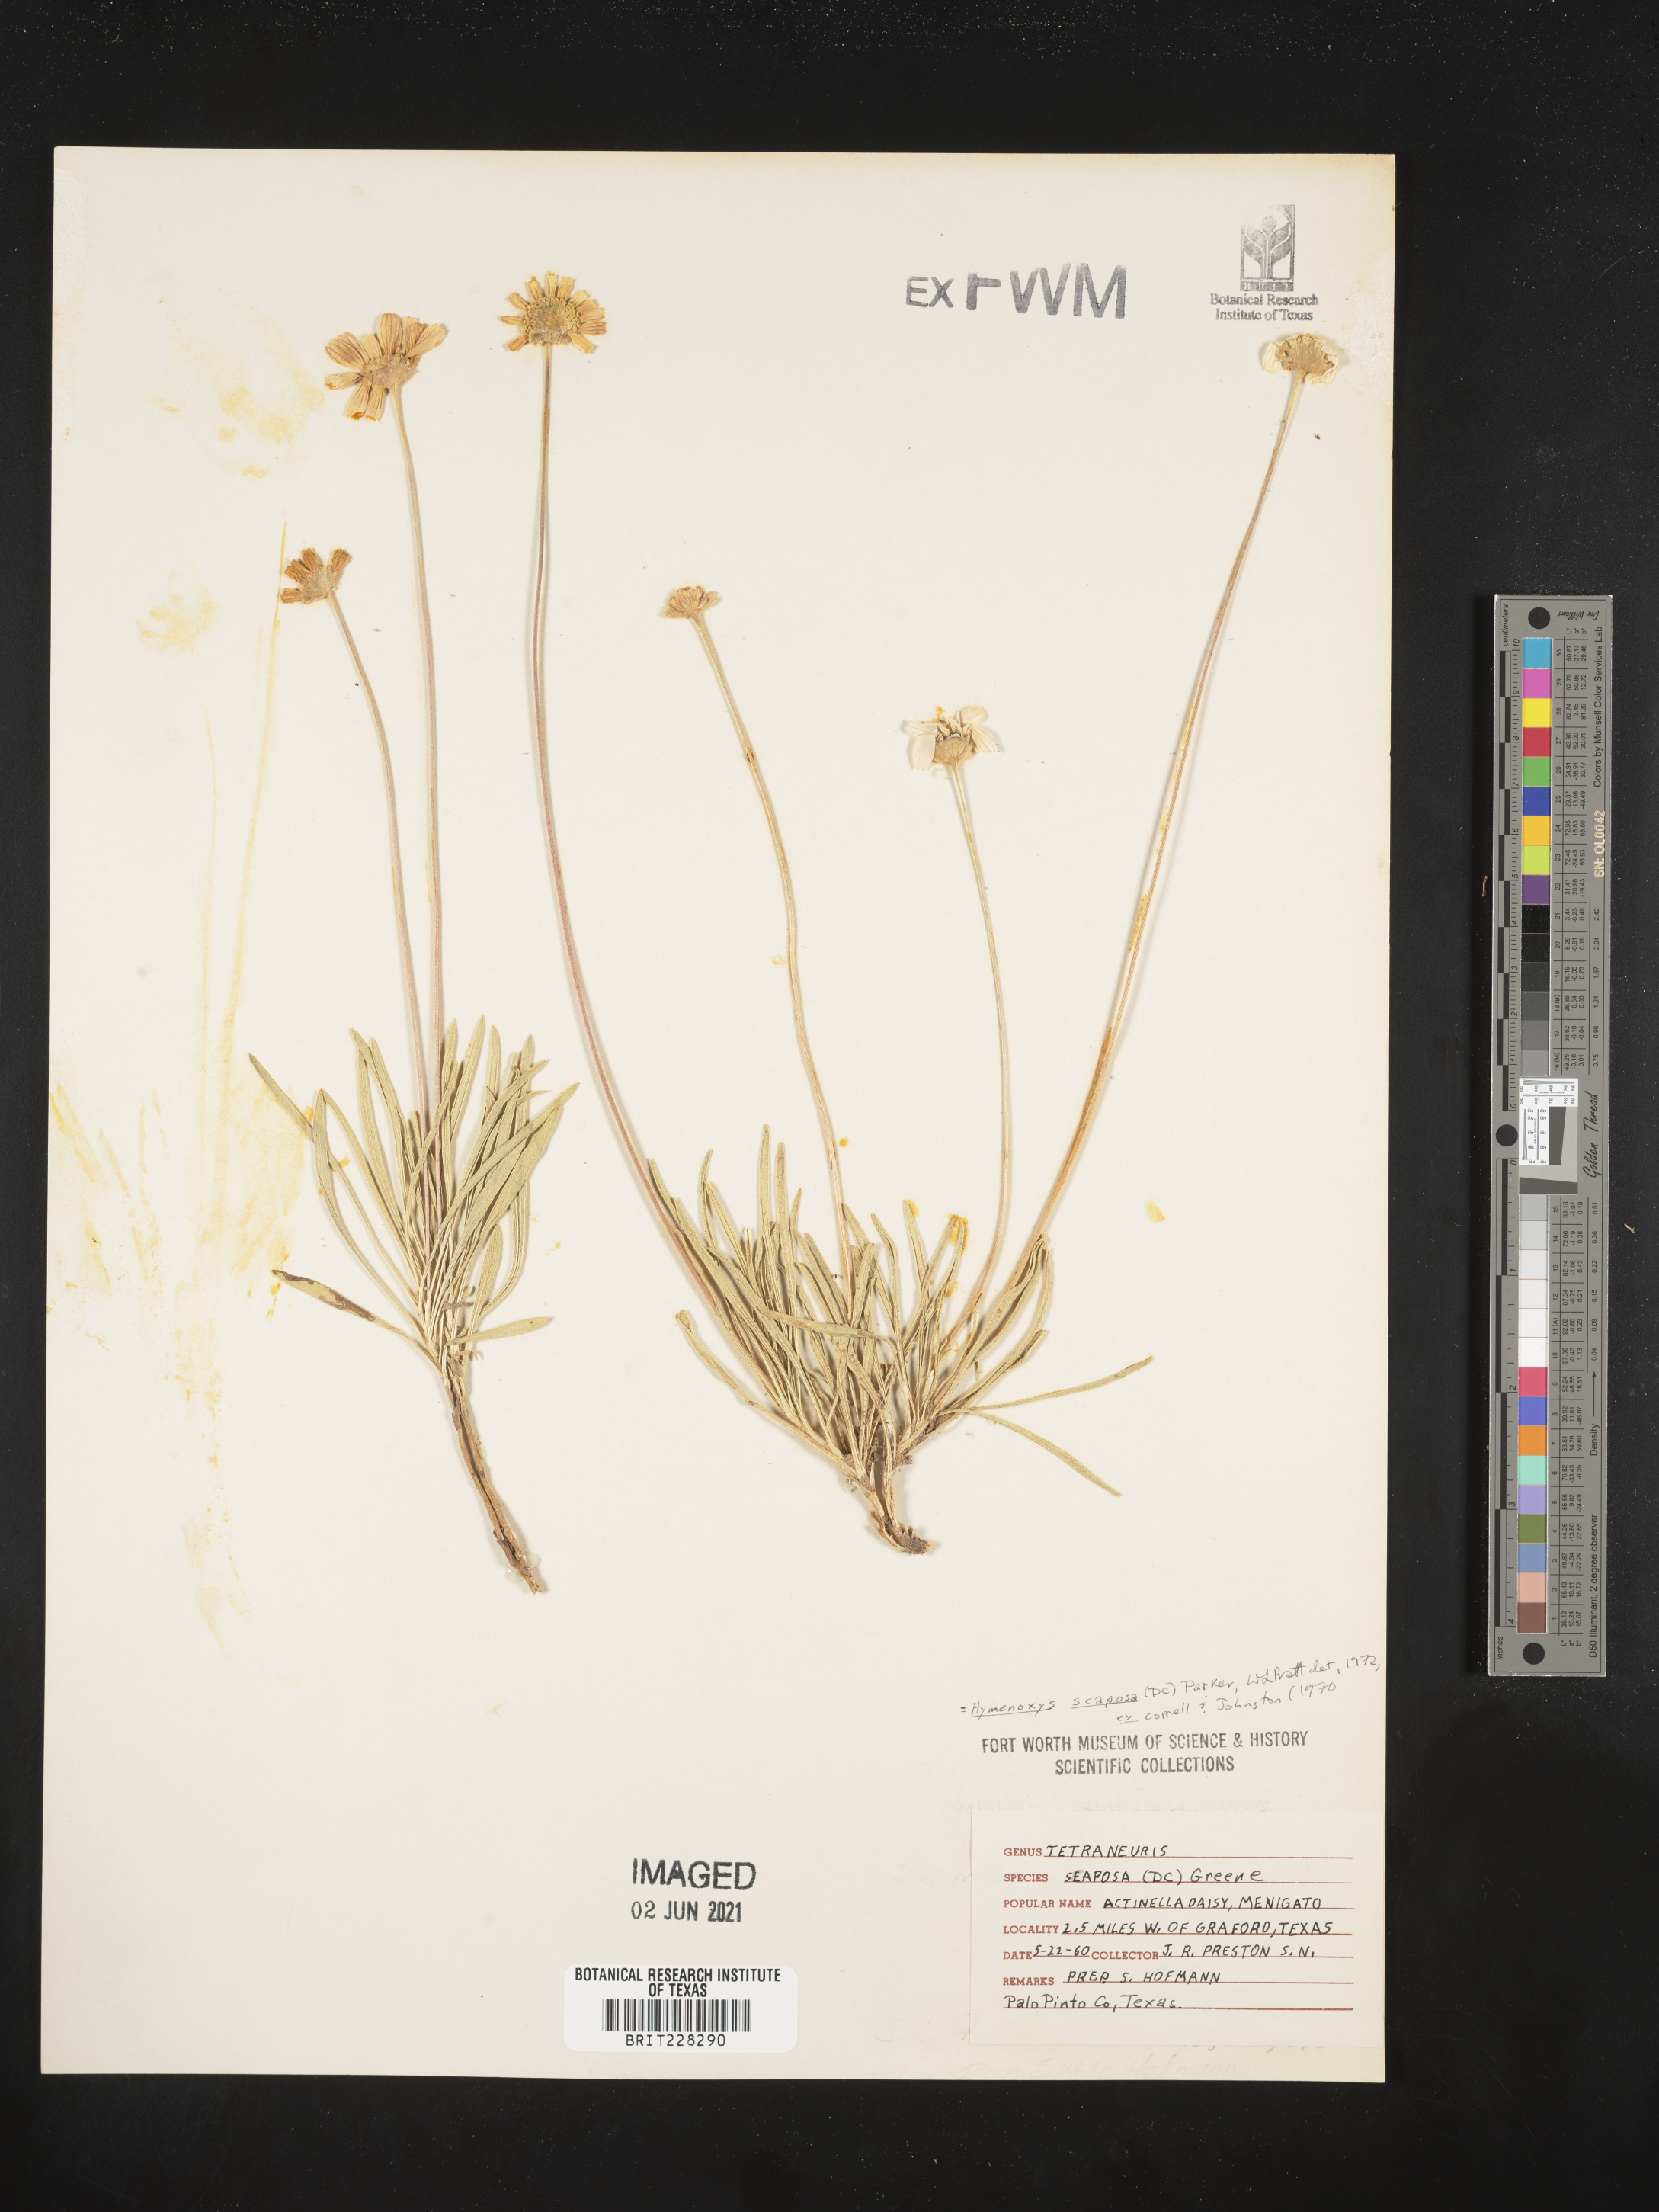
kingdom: Plantae
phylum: Tracheophyta
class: Magnoliopsida
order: Asterales
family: Asteraceae
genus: Tetraneuris
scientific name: Tetraneuris scaposa
